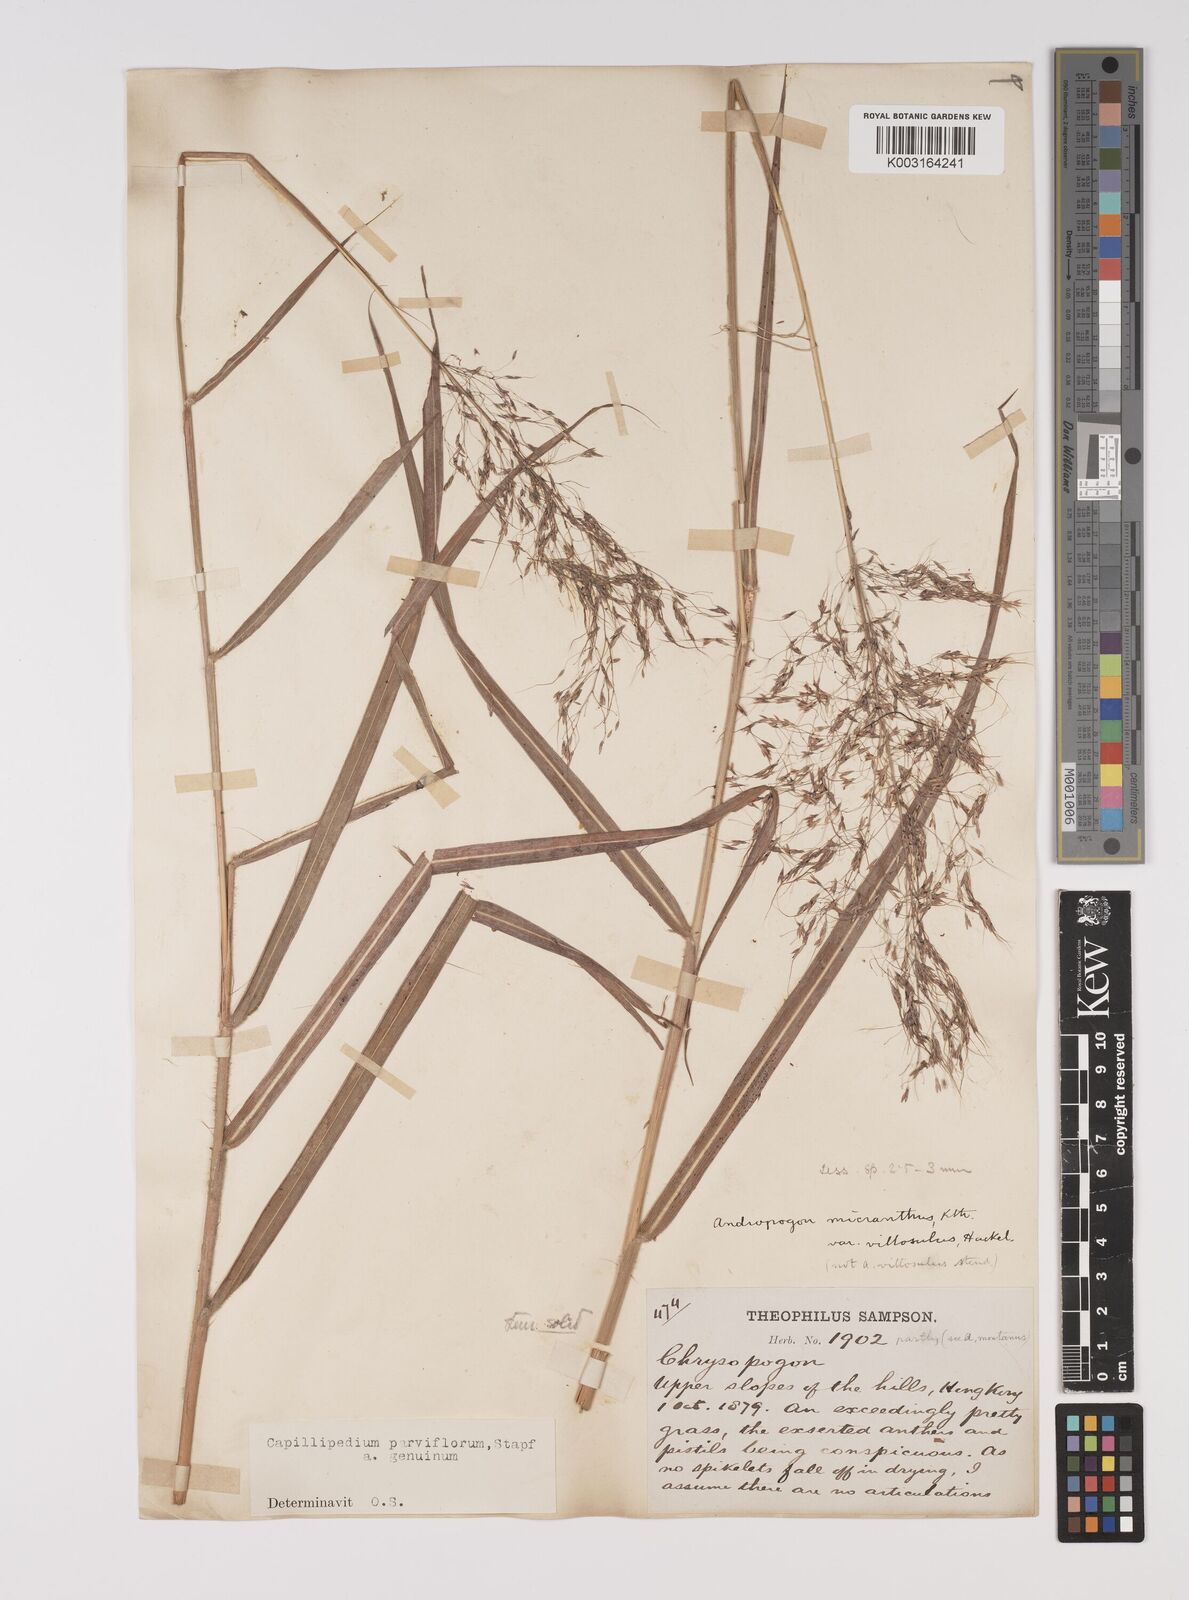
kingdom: Plantae
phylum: Tracheophyta
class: Liliopsida
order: Poales
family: Poaceae
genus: Capillipedium
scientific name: Capillipedium parviflorum
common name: Golden-beard
